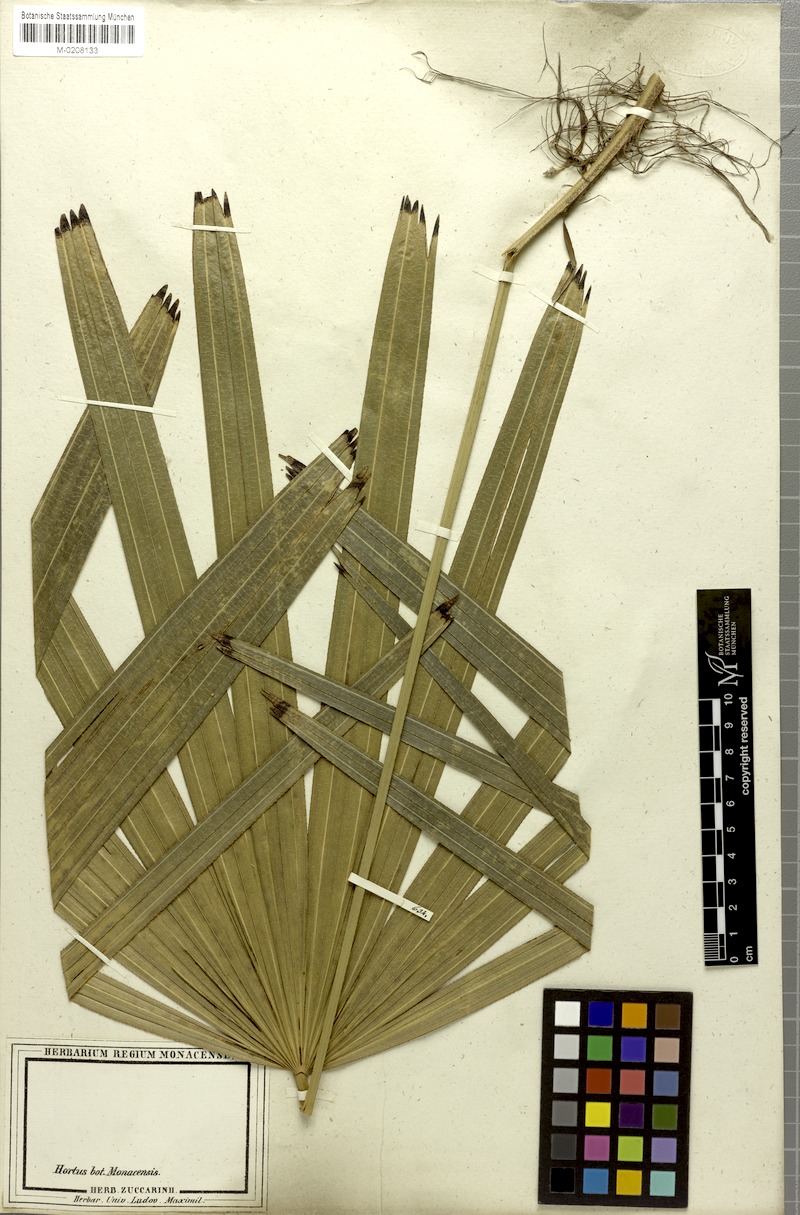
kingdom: Plantae
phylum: Tracheophyta
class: Liliopsida
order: Arecales
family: Arecaceae
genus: Rhapis
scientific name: Rhapis excelsa
